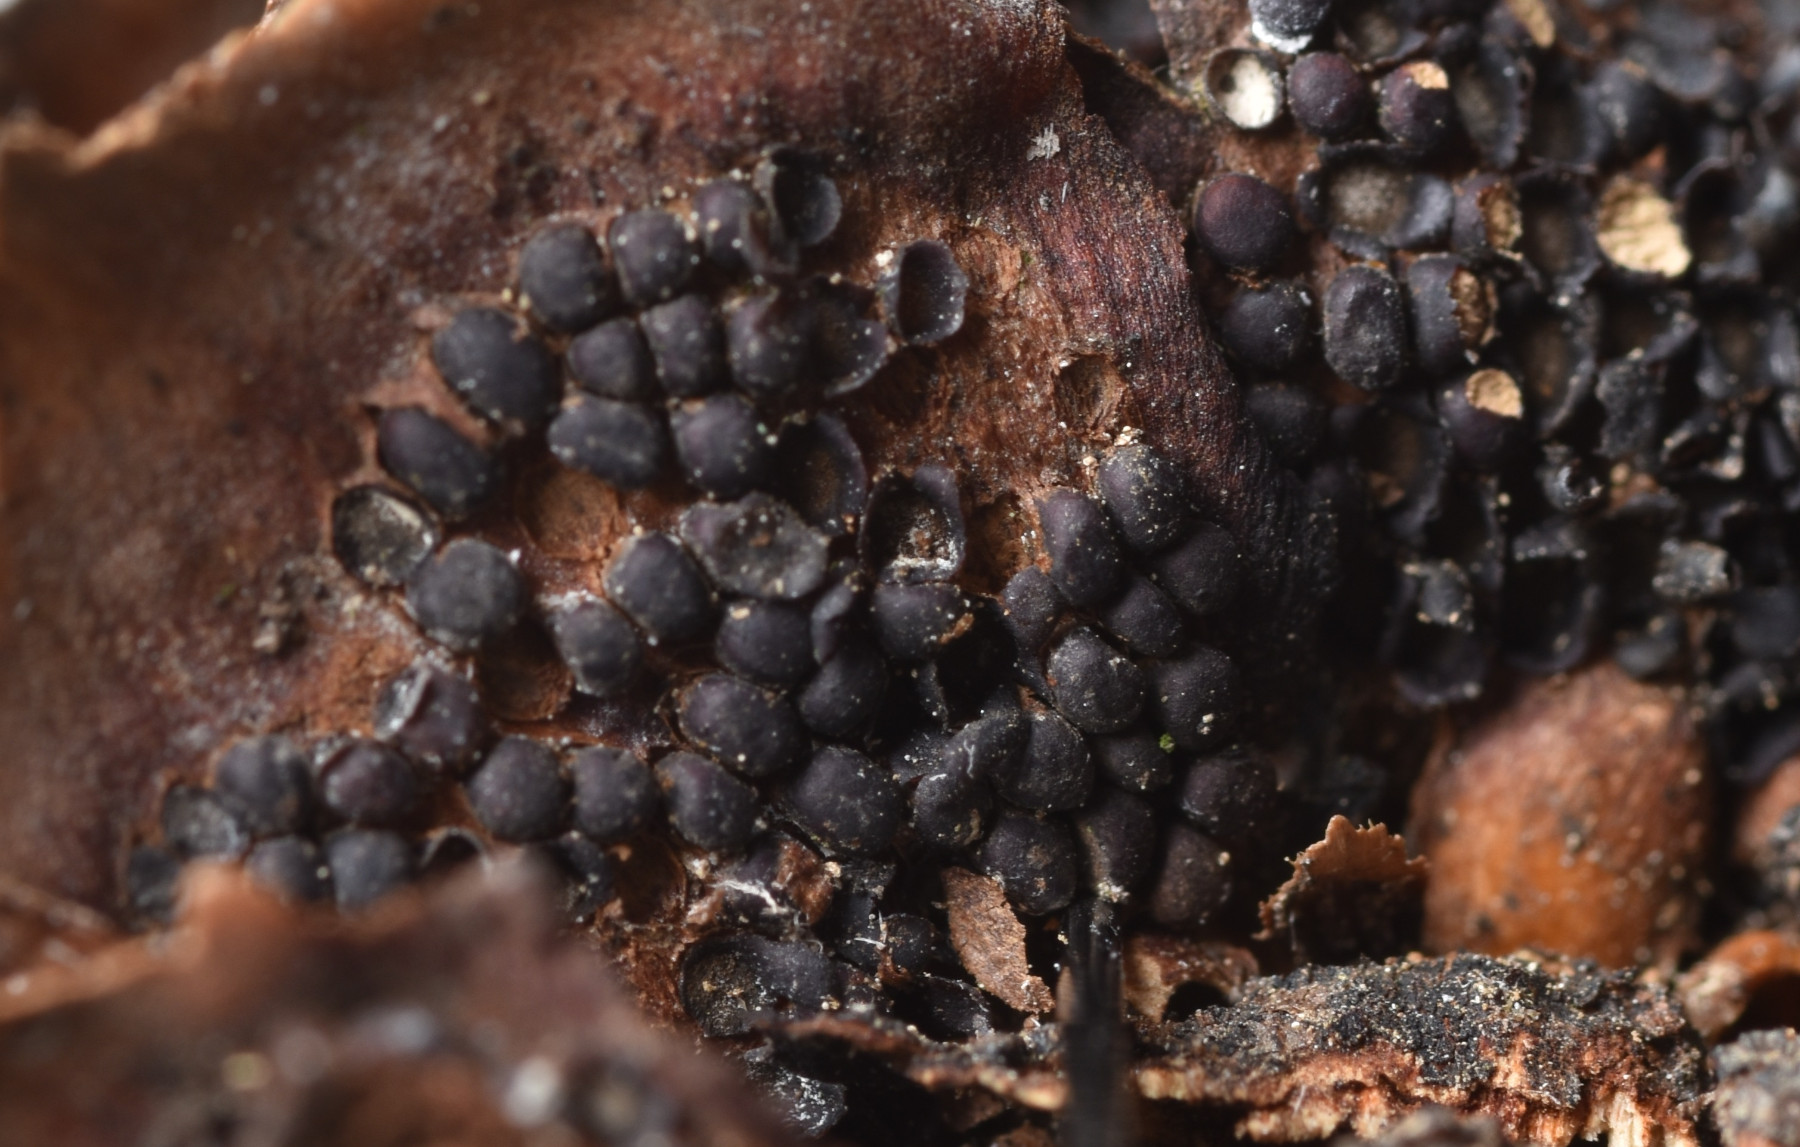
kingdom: Fungi
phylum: Basidiomycota
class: Pucciniomycetes
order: Pucciniales
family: Pucciniastraceae
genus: Thekopsora
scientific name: Thekopsora areolata
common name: grankogle-nålerust
